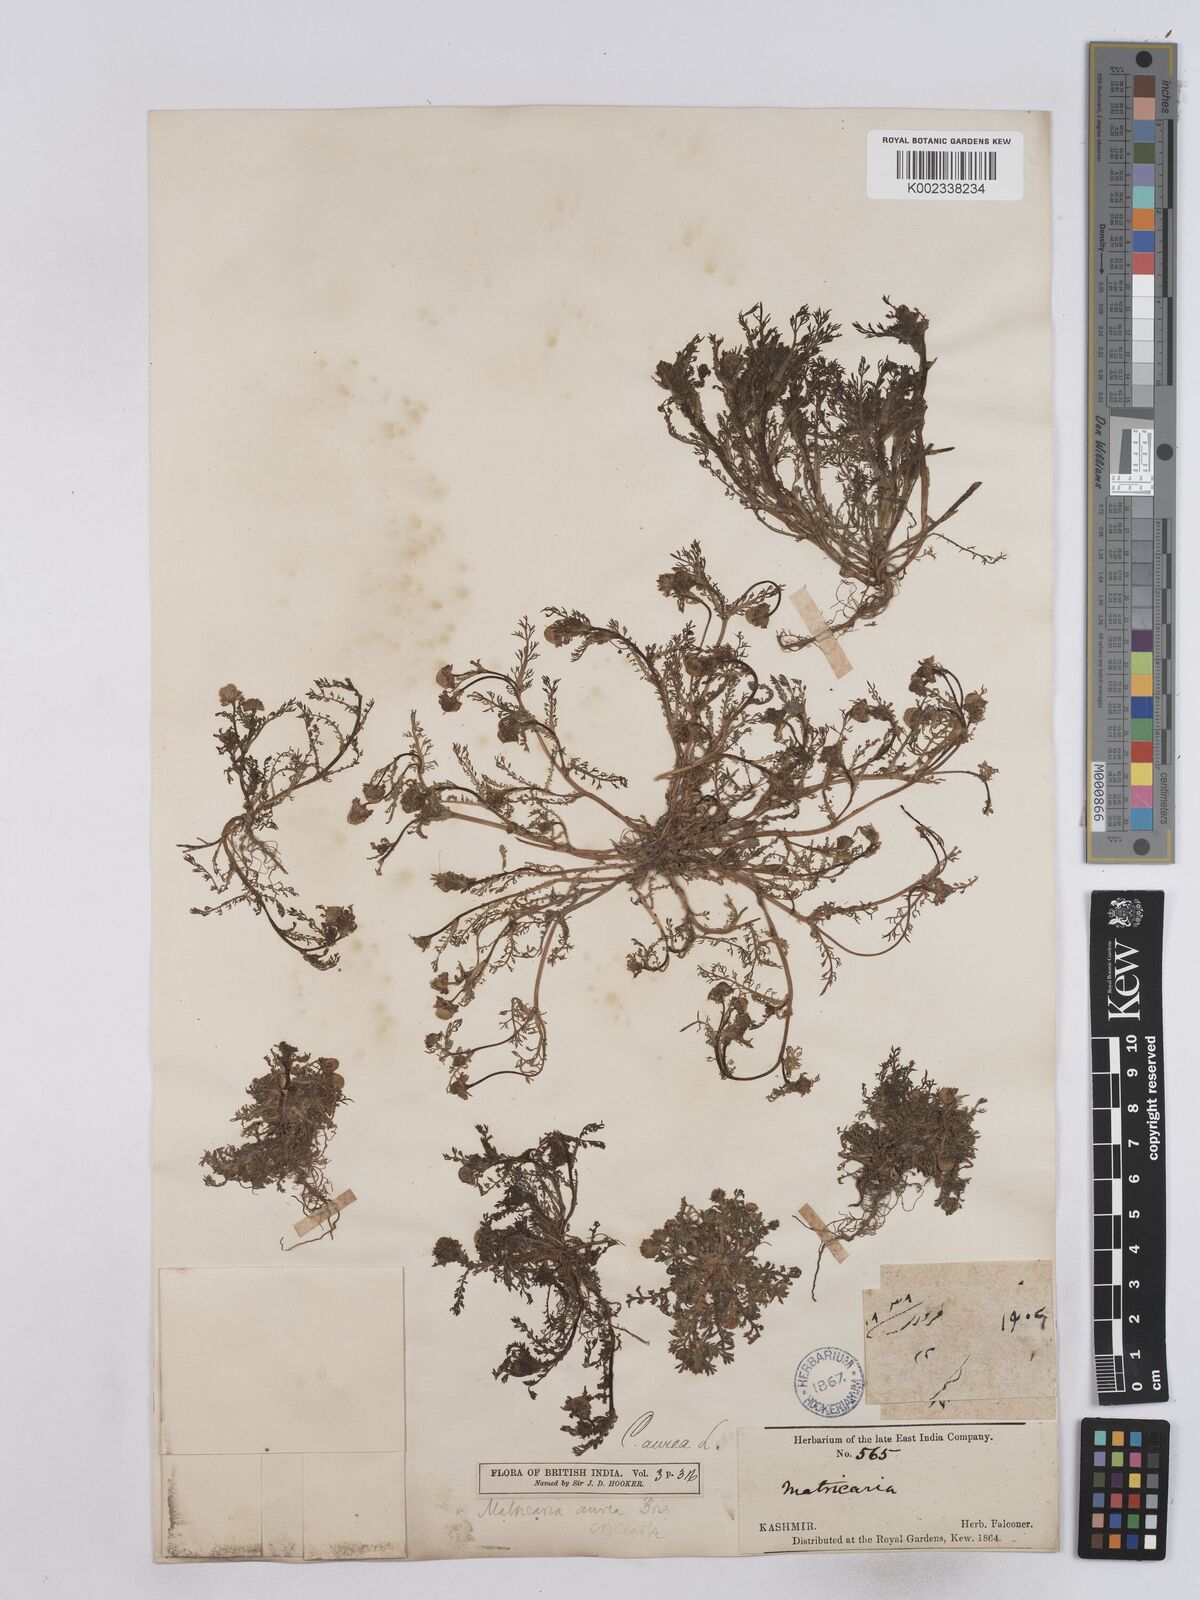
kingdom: Plantae
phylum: Tracheophyta
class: Magnoliopsida
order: Asterales
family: Asteraceae
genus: Matricaria
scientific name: Matricaria aurea
